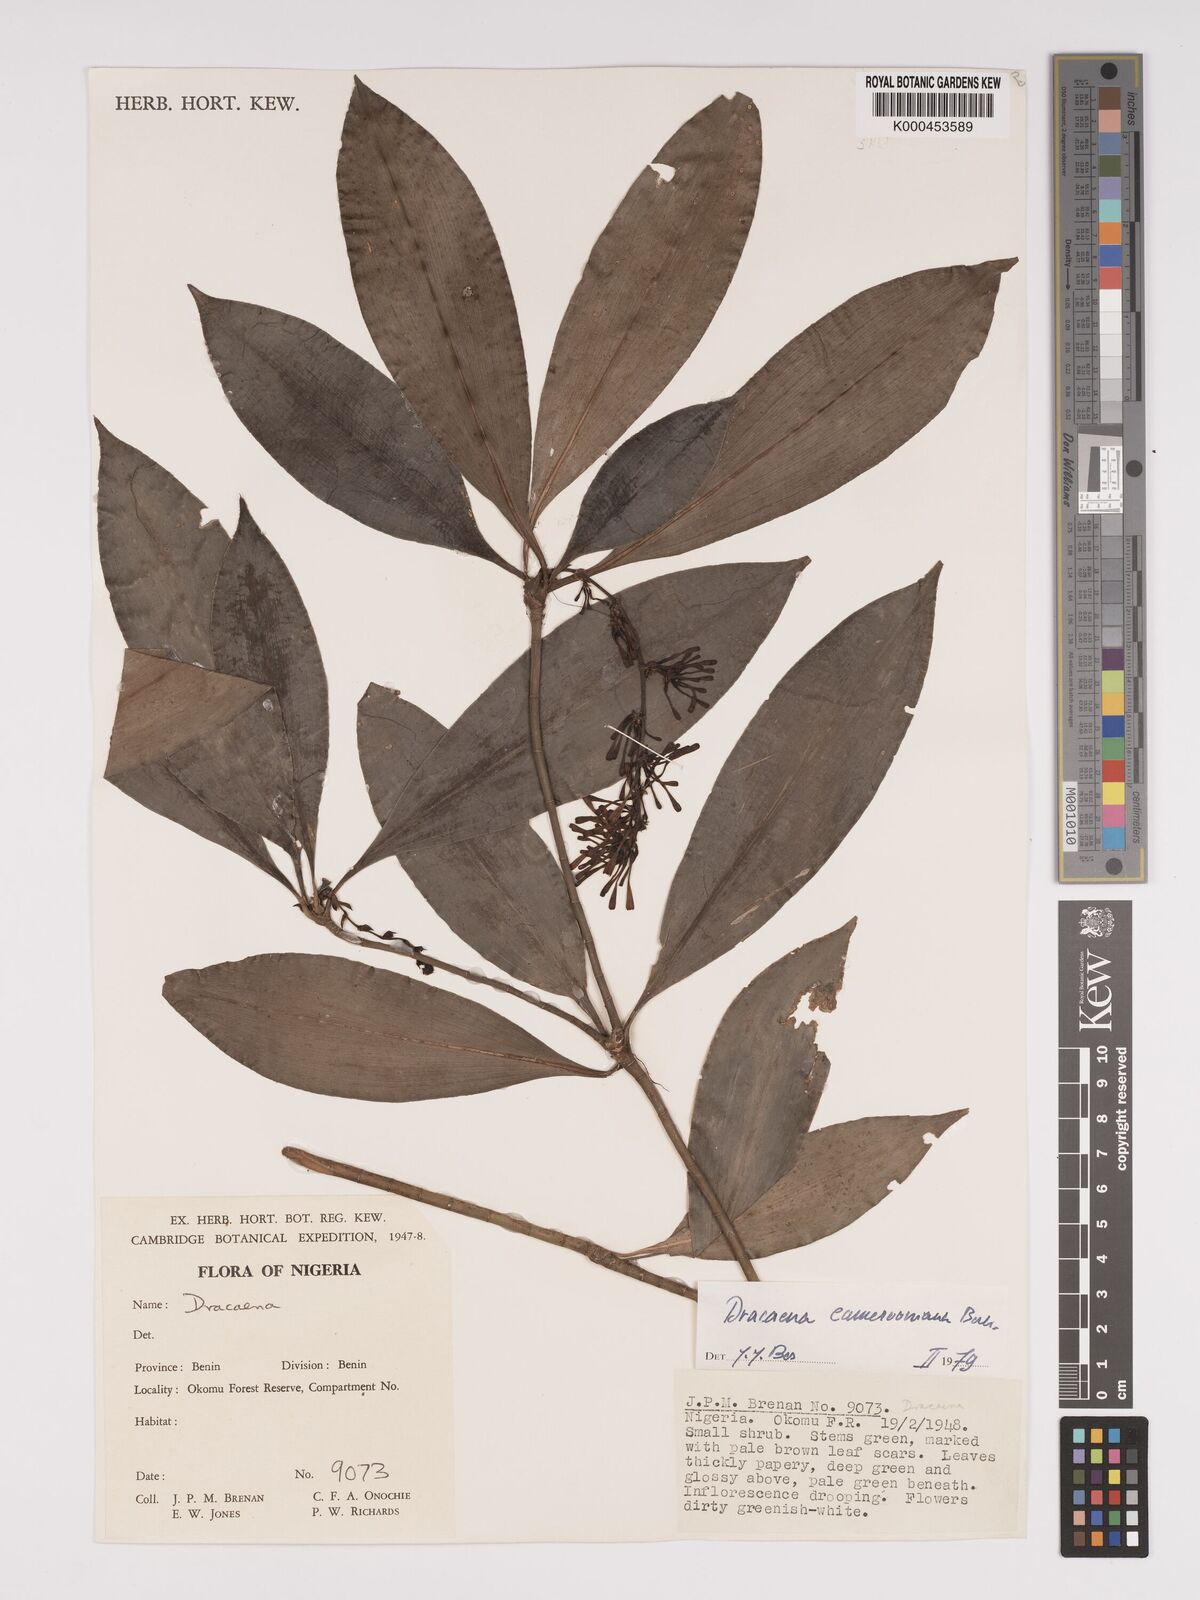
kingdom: Plantae
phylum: Tracheophyta
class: Liliopsida
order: Asparagales
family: Asparagaceae
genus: Dracaena
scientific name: Dracaena camerooniana
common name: Dragon tree
